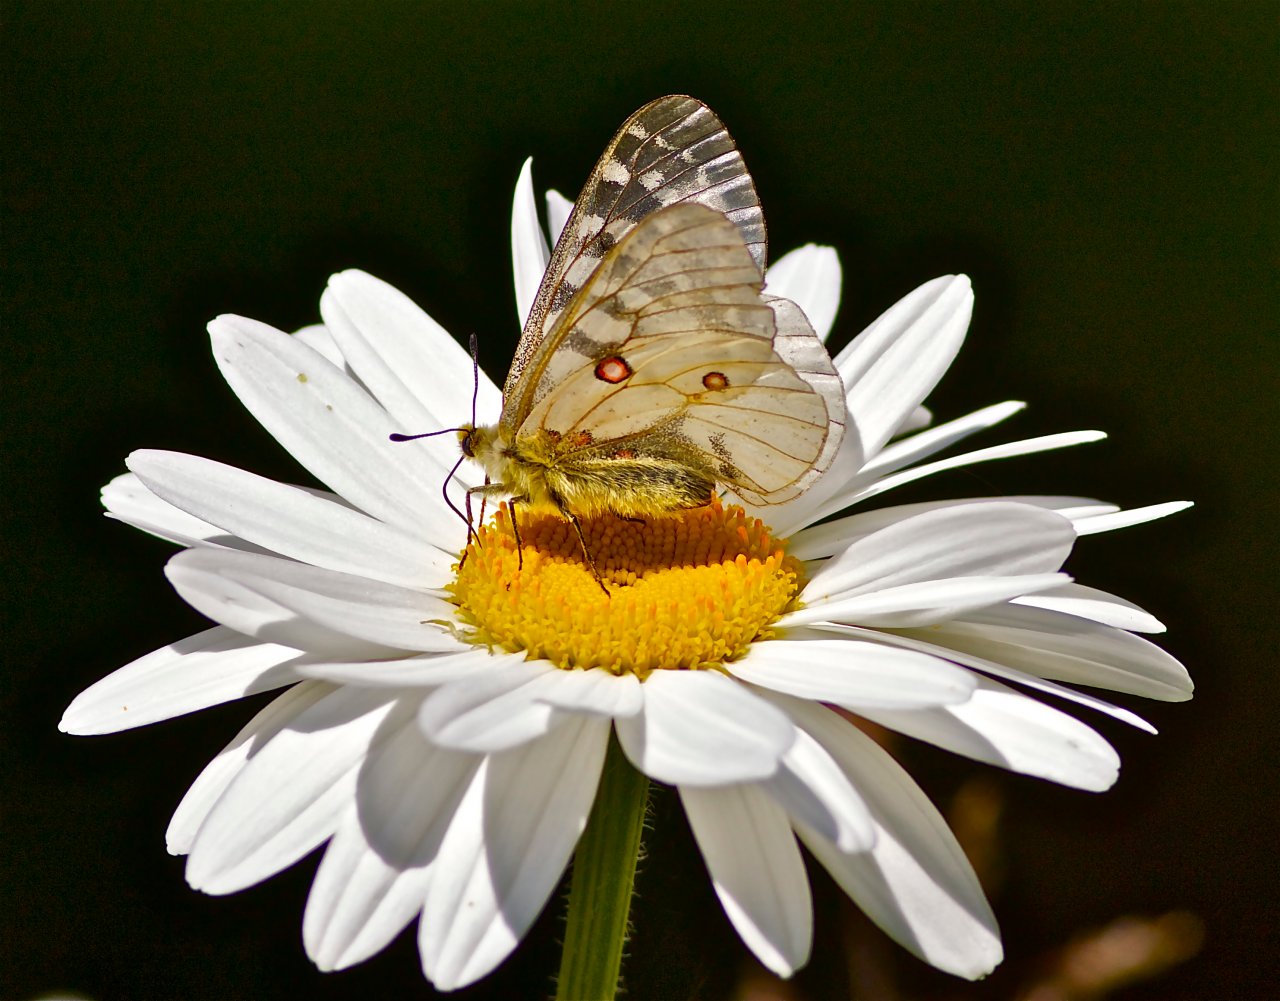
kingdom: Animalia
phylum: Arthropoda
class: Insecta
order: Lepidoptera
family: Papilionidae
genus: Parnassius
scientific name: Parnassius clodius
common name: Clodius Parnassian
